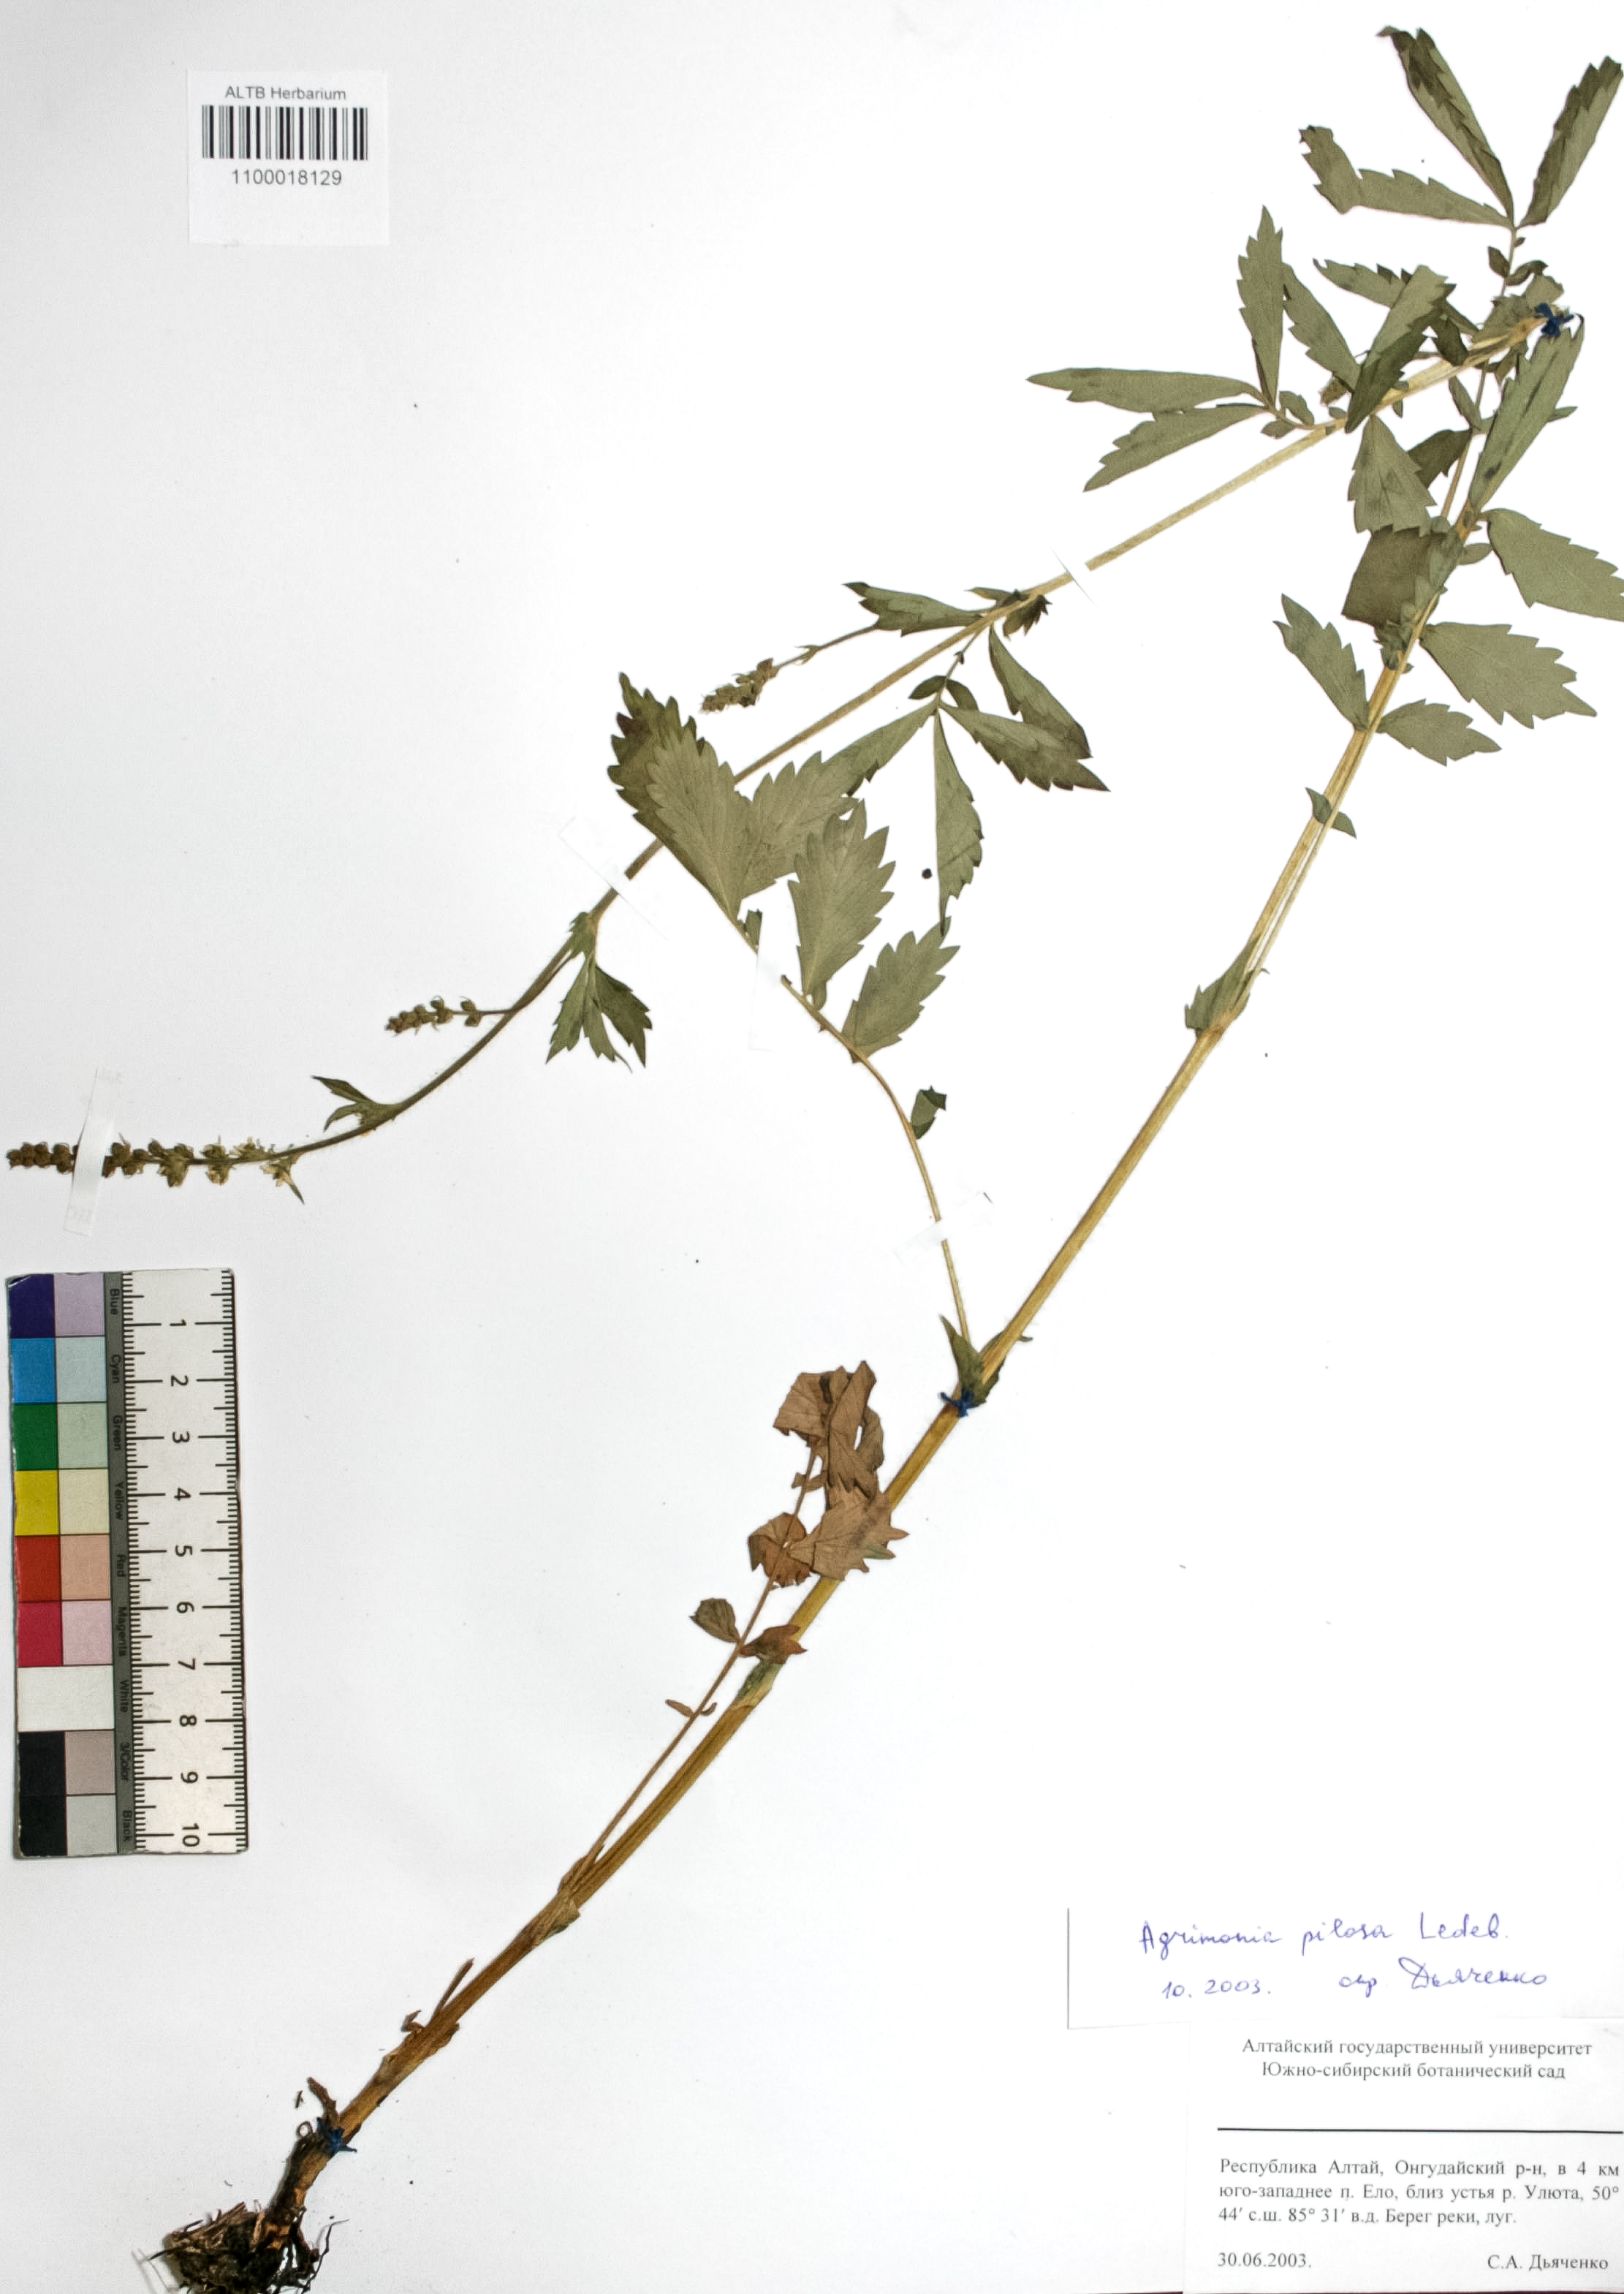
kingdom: Plantae
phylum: Tracheophyta
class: Magnoliopsida
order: Rosales
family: Rosaceae
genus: Agrimonia
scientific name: Agrimonia pilosa
